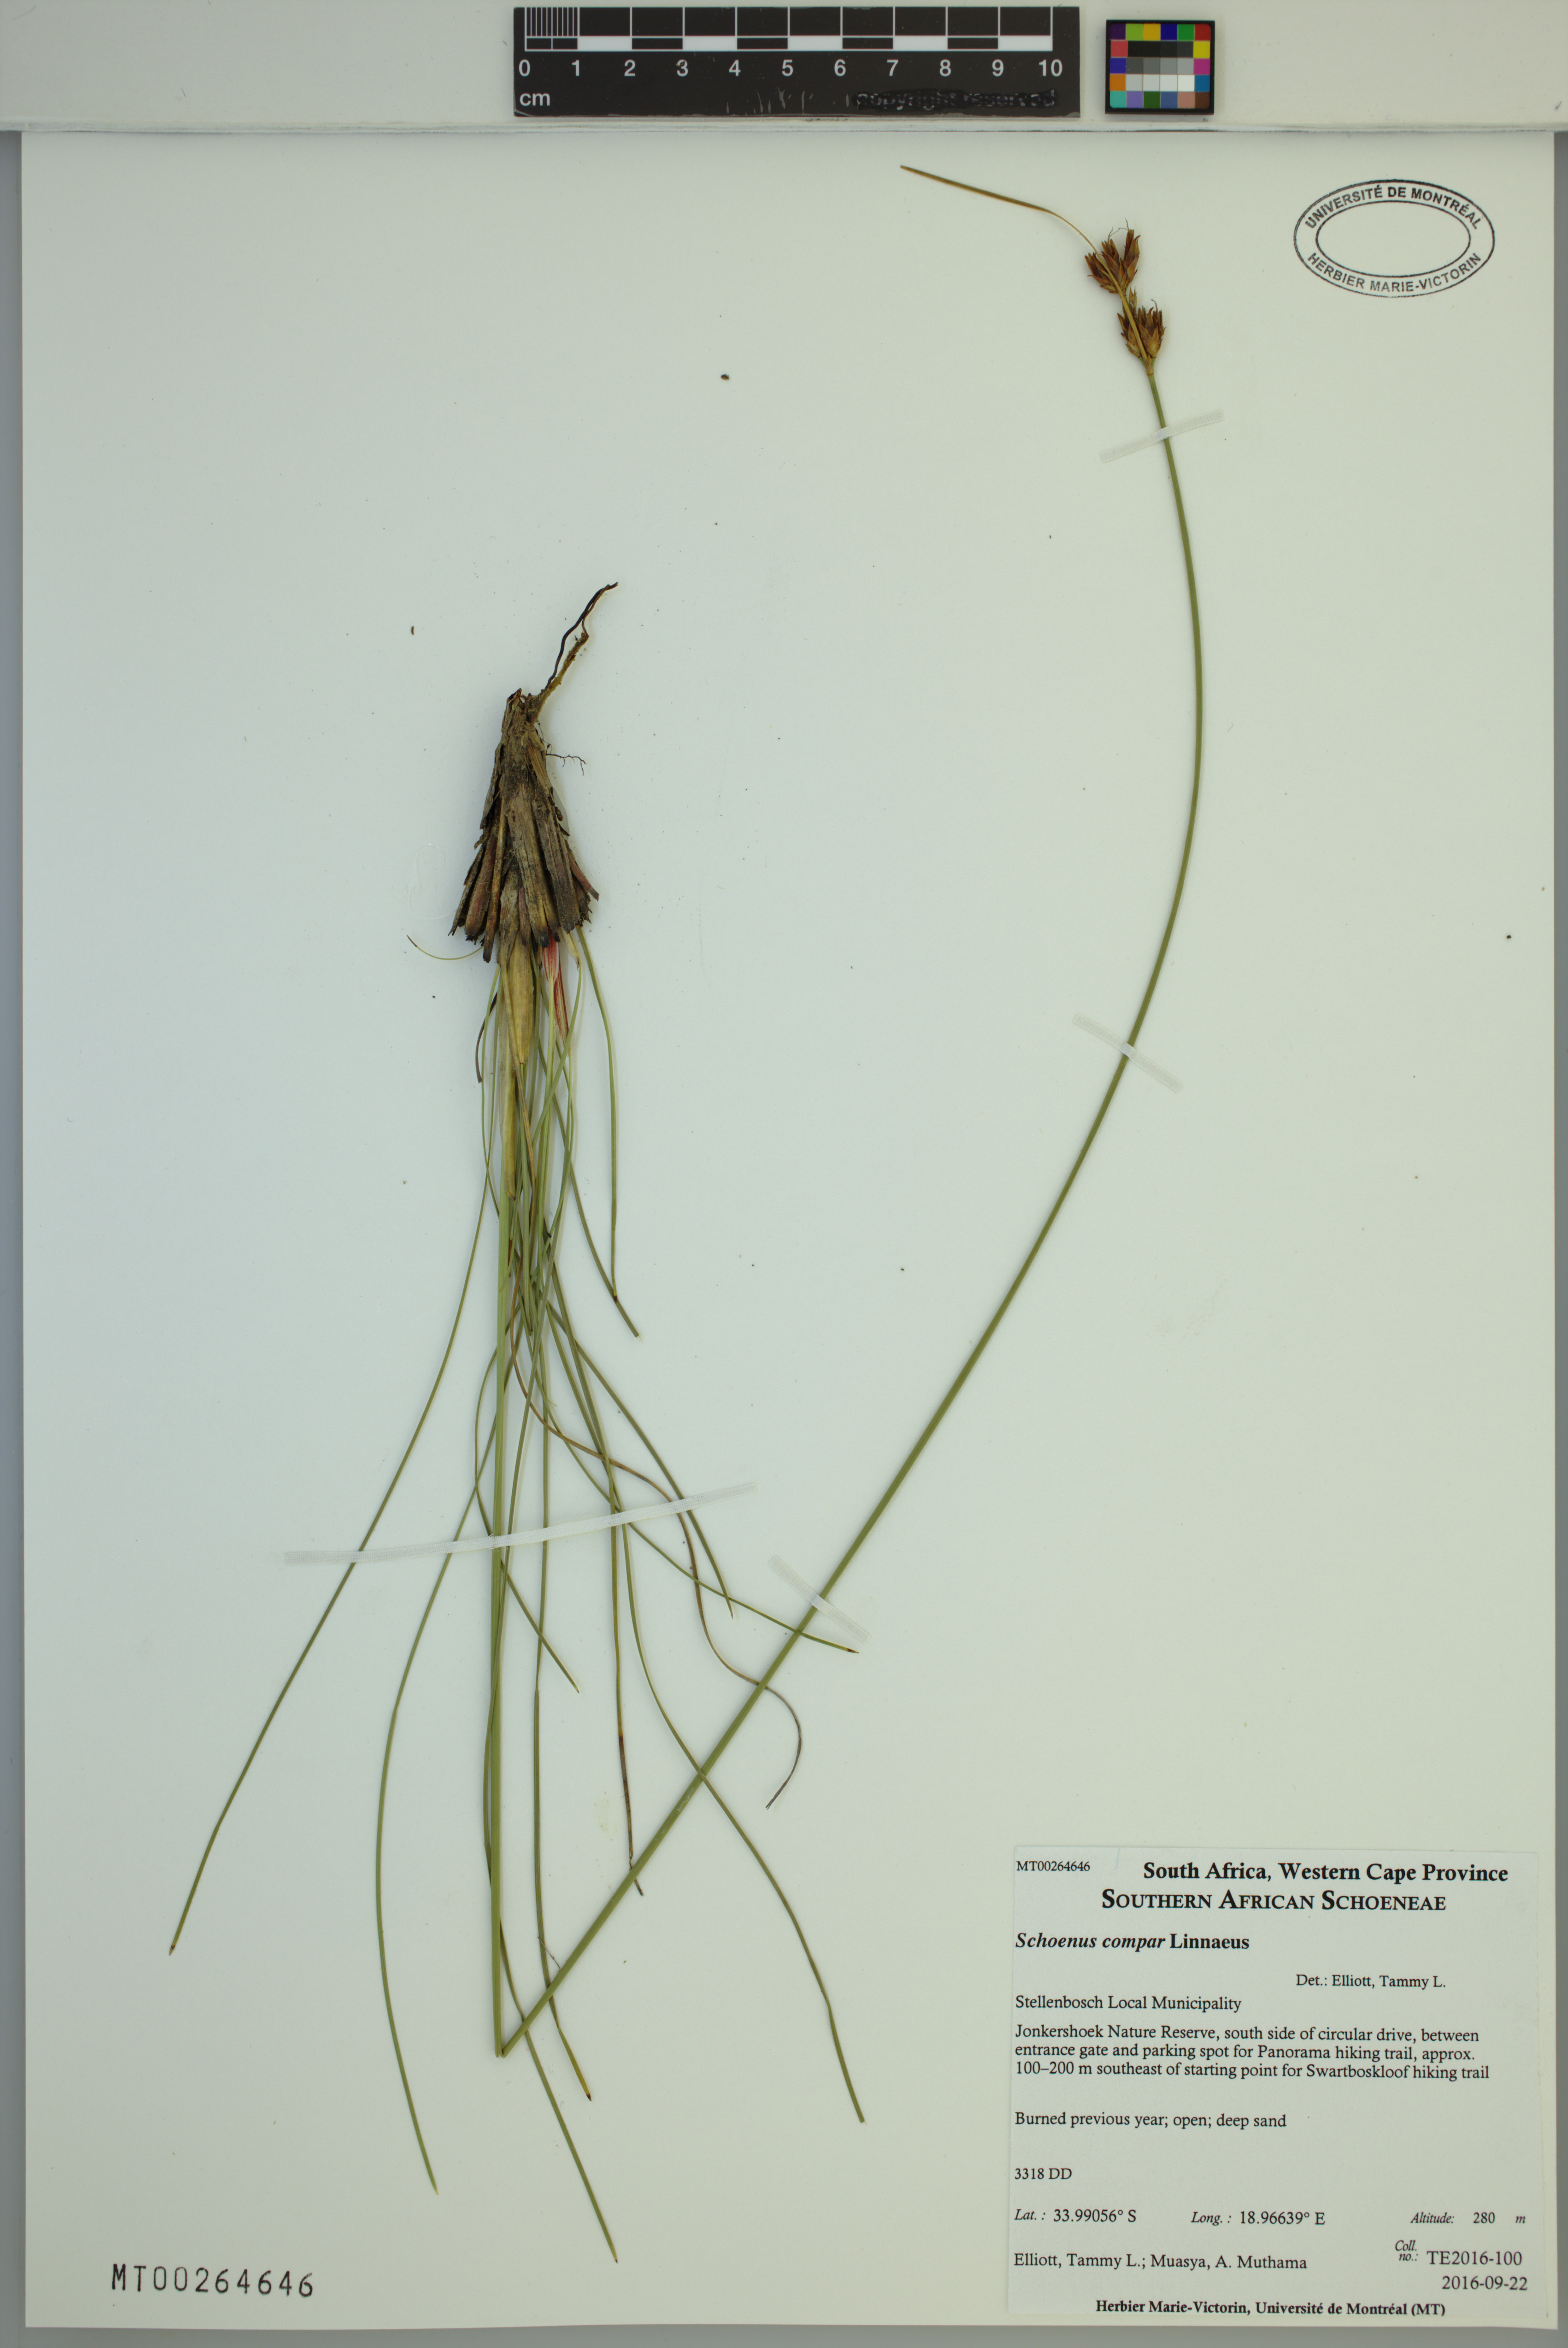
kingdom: Plantae
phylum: Tracheophyta
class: Liliopsida
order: Poales
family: Cyperaceae
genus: Schoenus
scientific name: Schoenus compar
